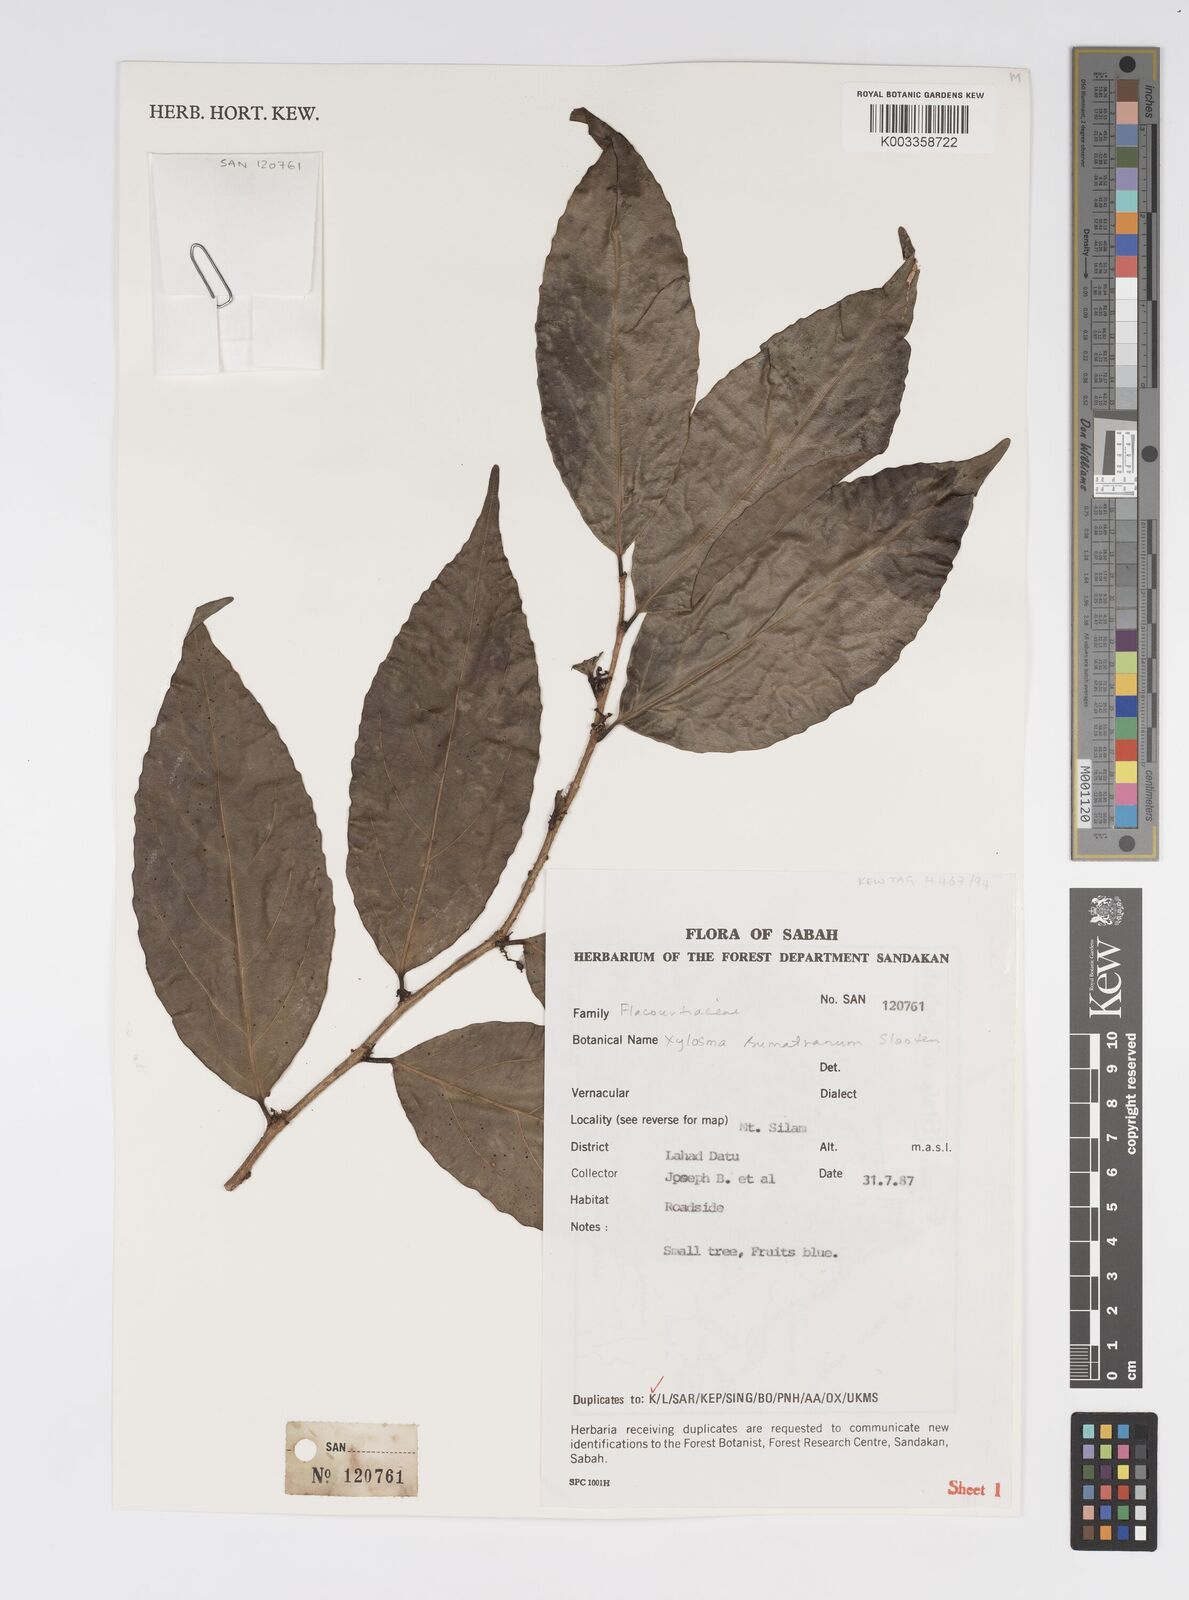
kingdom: Plantae
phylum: Tracheophyta
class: Magnoliopsida
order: Malpighiales
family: Salicaceae
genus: Xylosma
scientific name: Xylosma sumatrana
